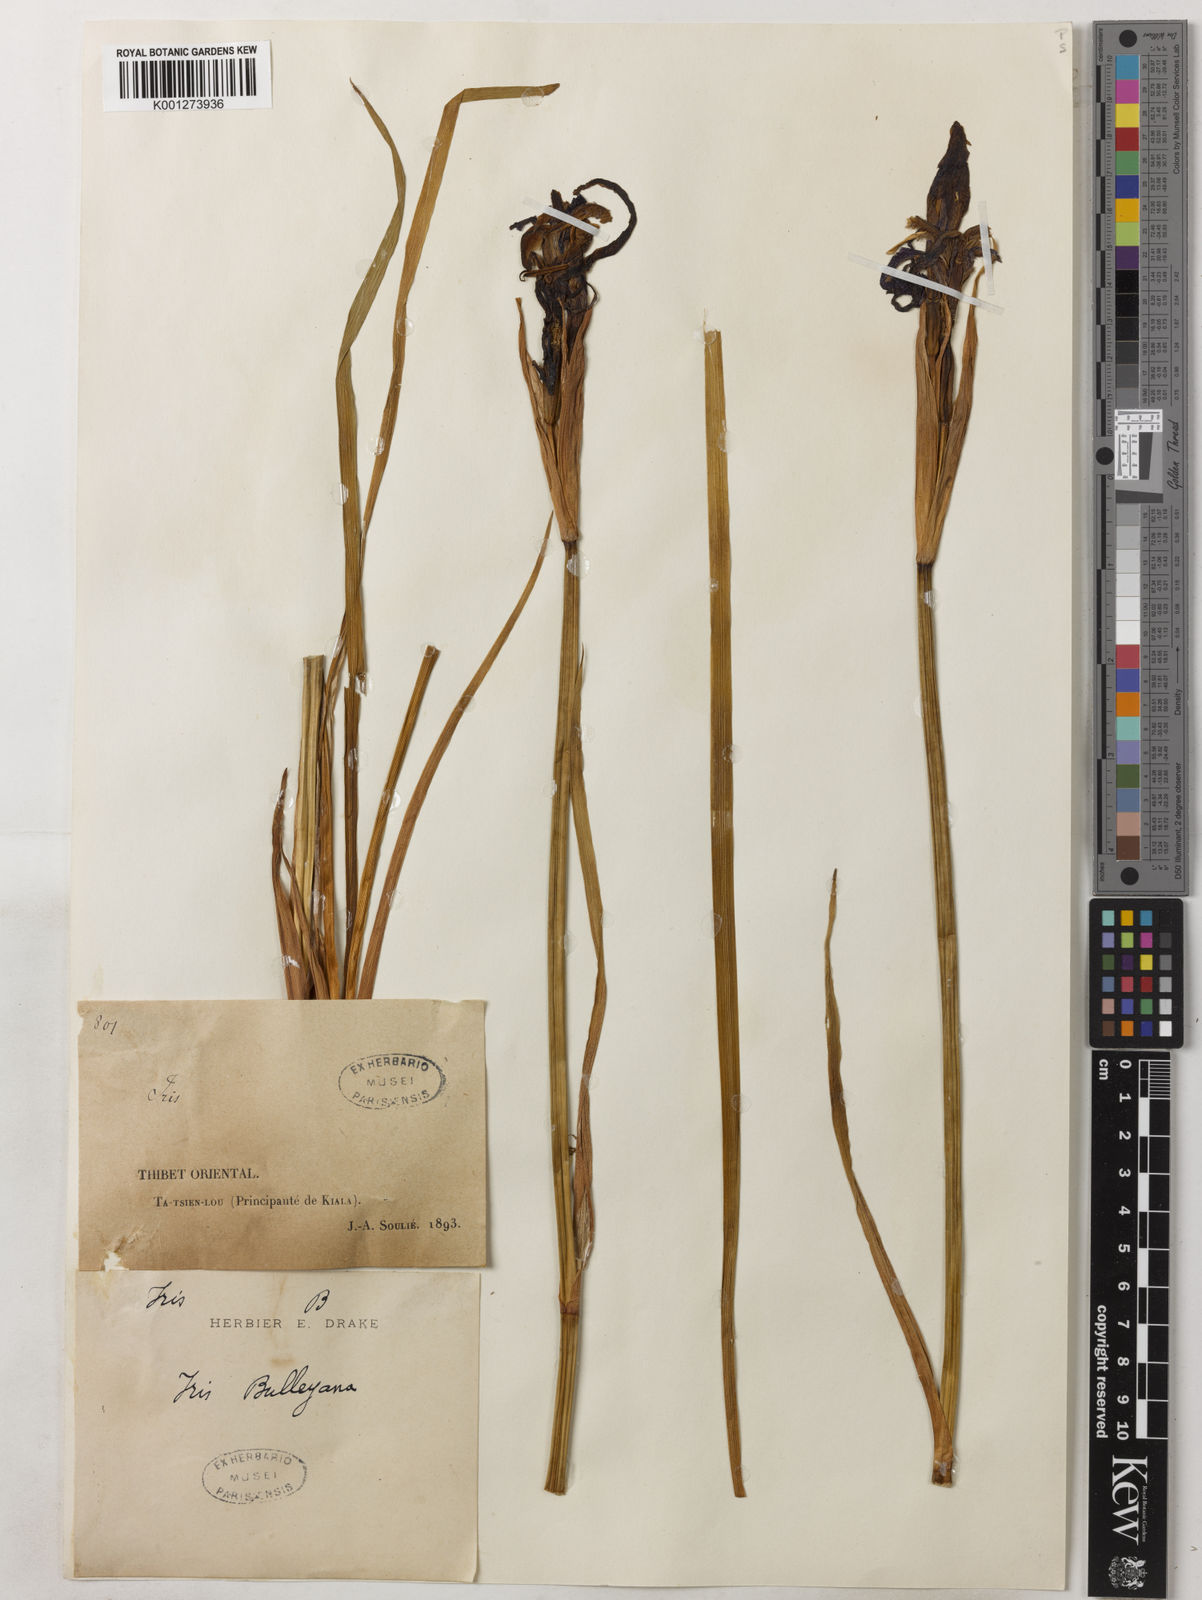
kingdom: Plantae
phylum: Tracheophyta
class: Liliopsida
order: Asparagales
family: Iridaceae
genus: Iris
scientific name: Iris delavayi
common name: Long-scape iris
